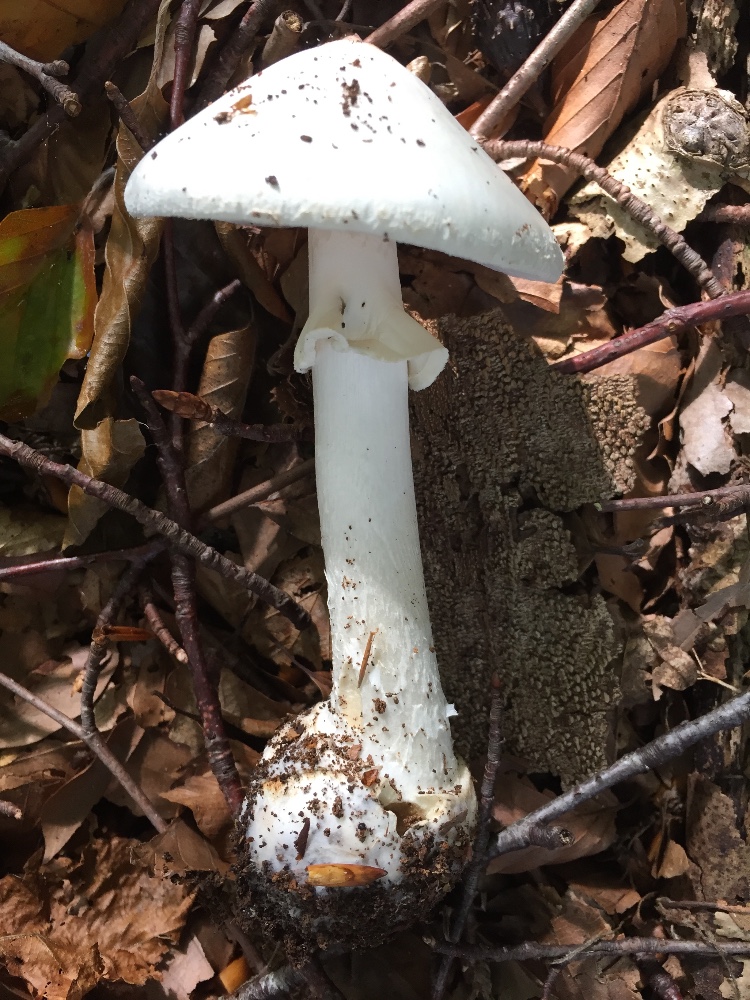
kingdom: Fungi
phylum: Basidiomycota
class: Agaricomycetes
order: Agaricales
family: Amanitaceae
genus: Amanita
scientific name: Amanita citrina
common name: False death-cap
